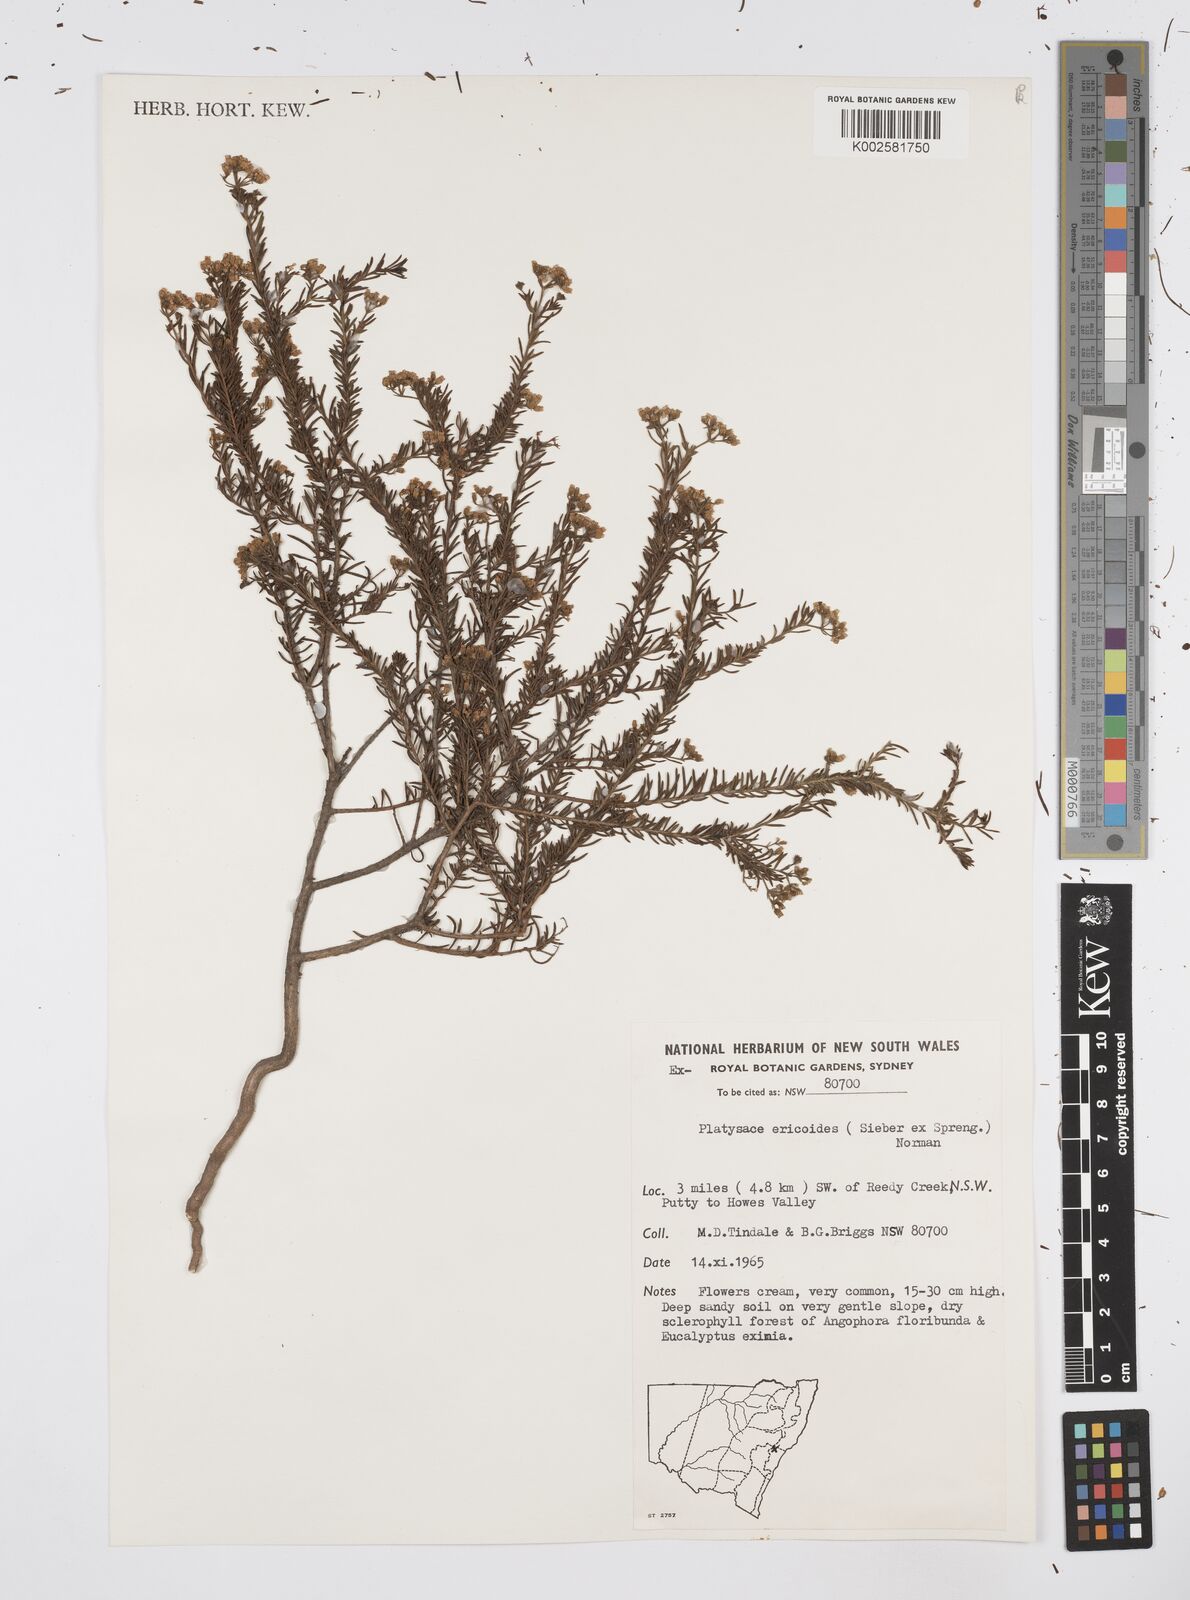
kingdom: Plantae
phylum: Tracheophyta
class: Magnoliopsida
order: Apiales
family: Apiaceae
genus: Platysace
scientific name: Platysace ericoides
